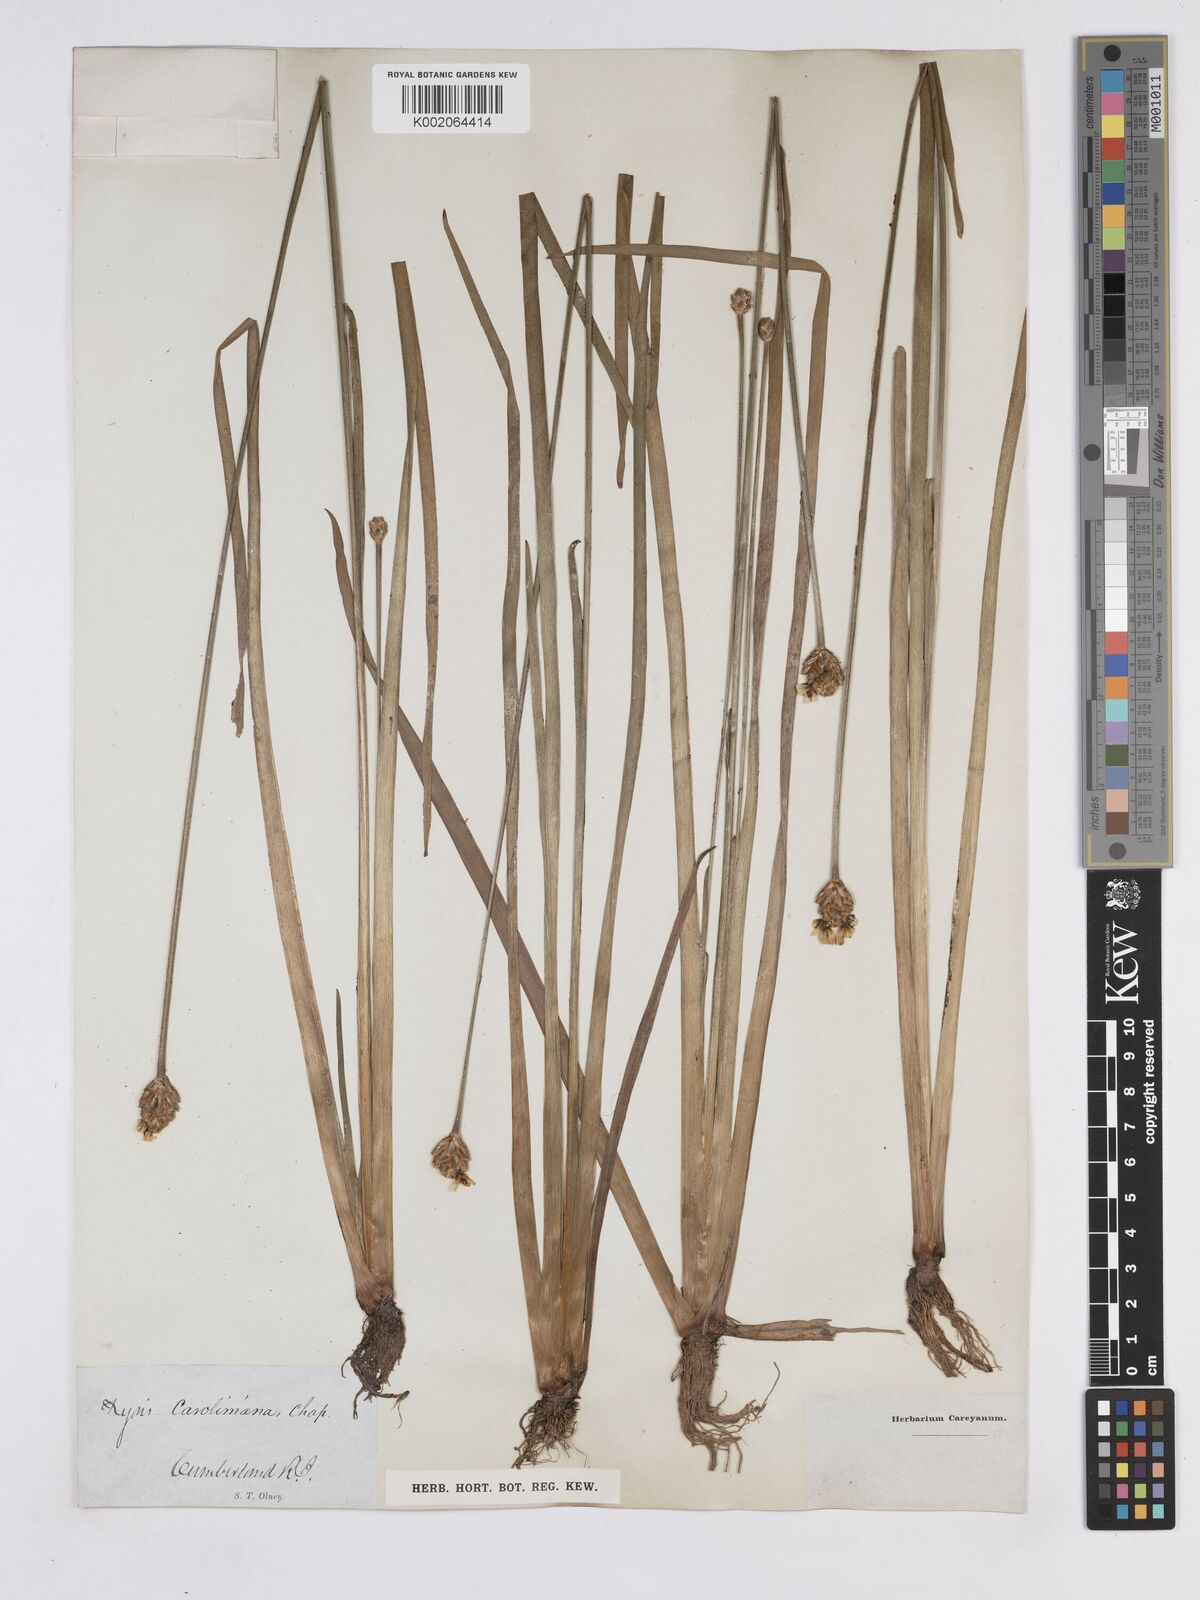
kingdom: Plantae
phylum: Tracheophyta
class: Liliopsida
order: Poales
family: Xyridaceae
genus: Xyris
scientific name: Xyris caroliniana
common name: Carolina yellow-eyed-grass
